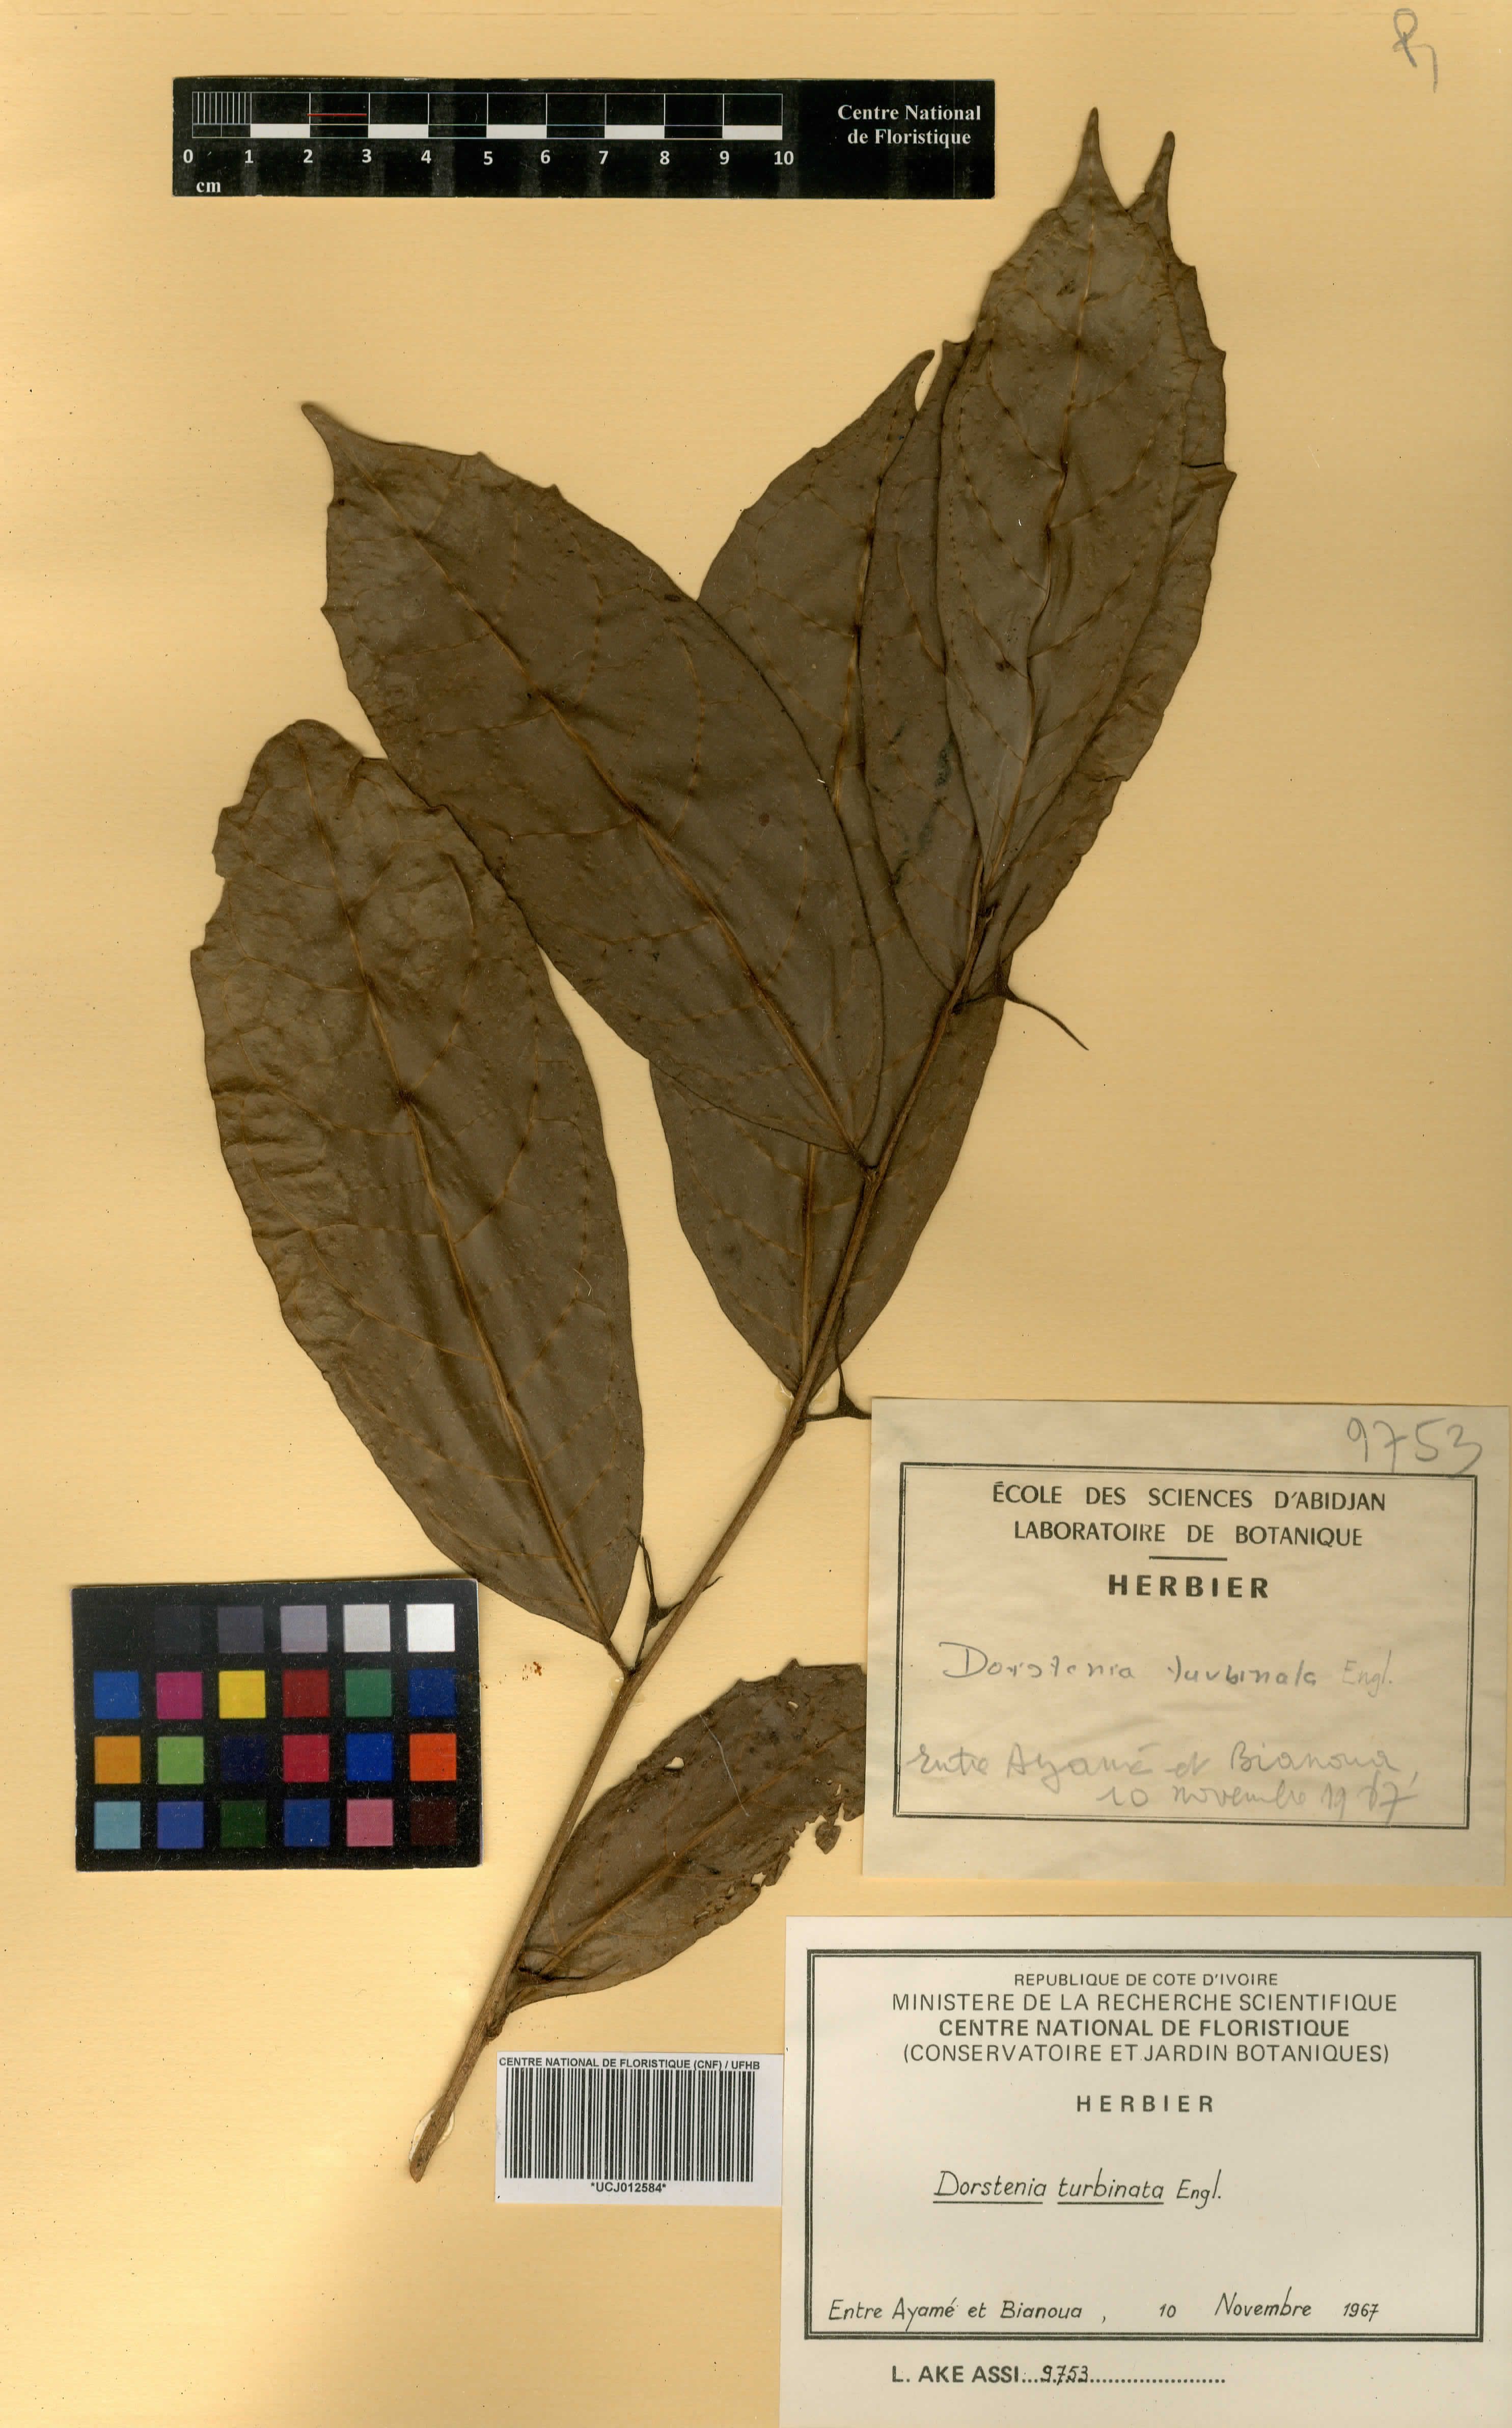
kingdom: Plantae
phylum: Tracheophyta
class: Magnoliopsida
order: Rosales
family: Moraceae
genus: Hijmania
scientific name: Hijmania turbinata
